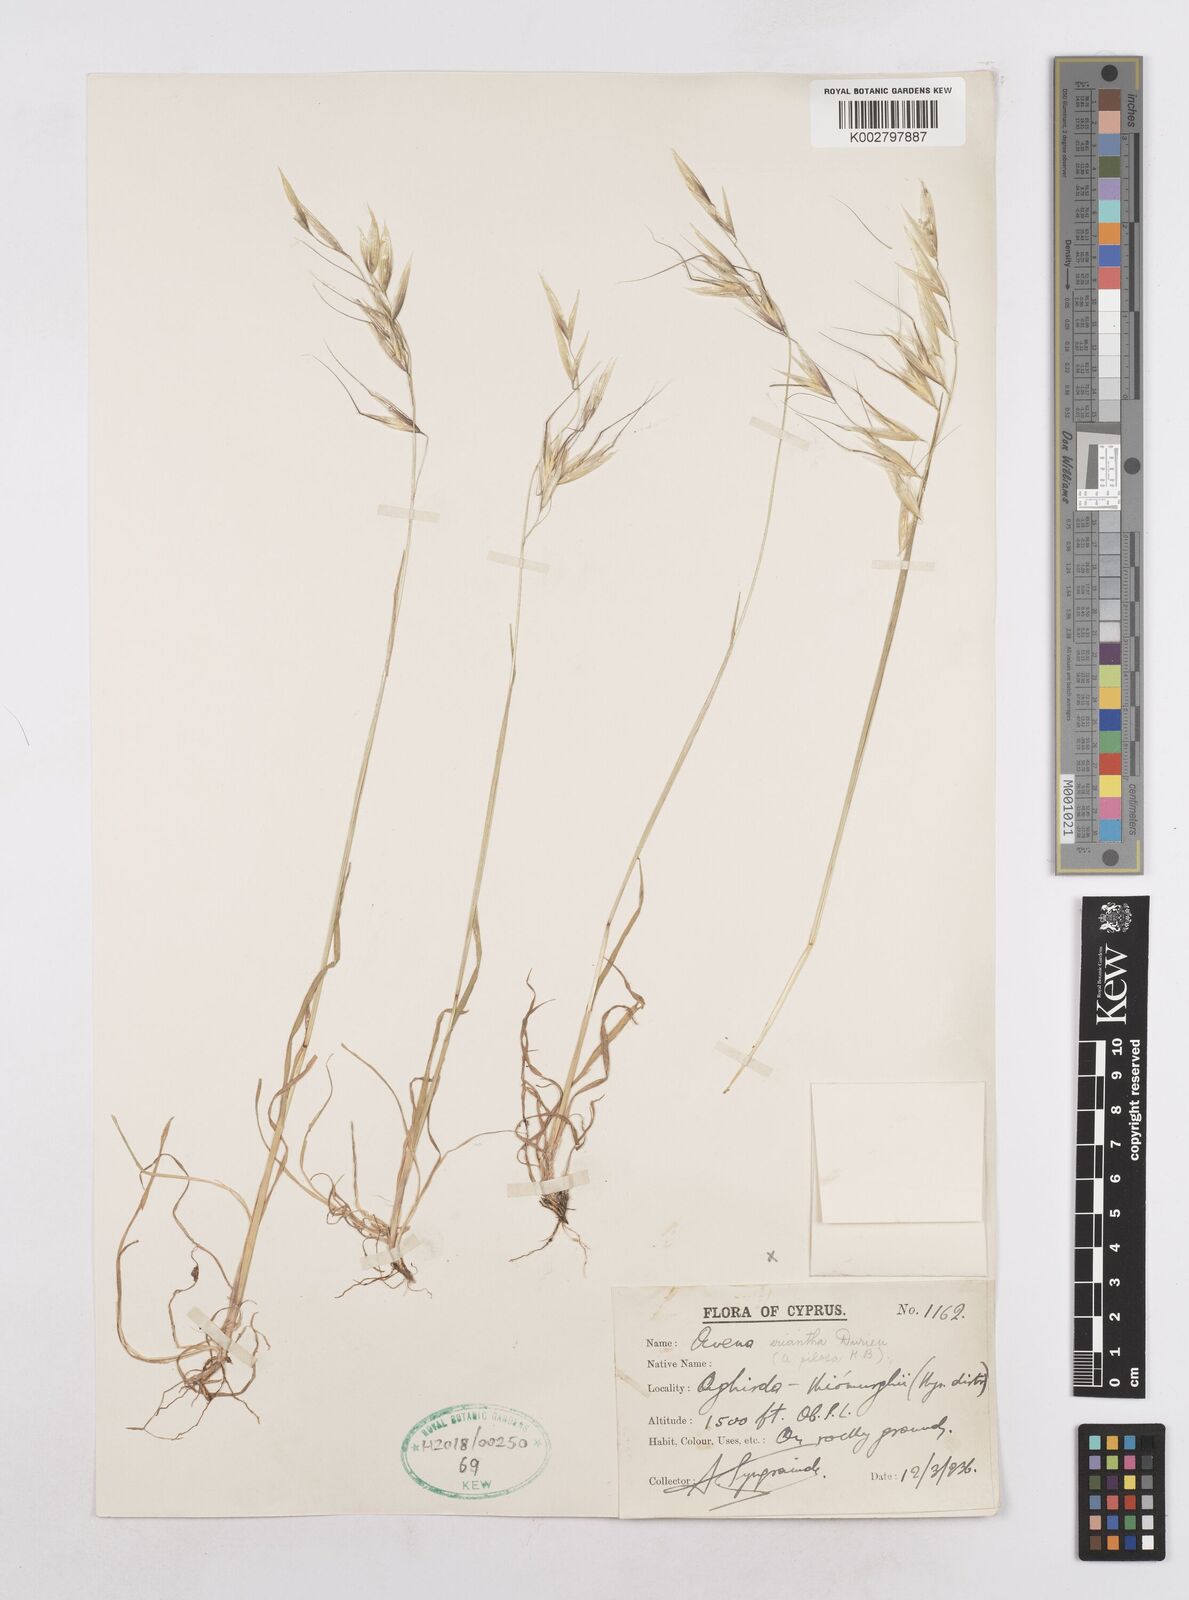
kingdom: Plantae
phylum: Tracheophyta
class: Liliopsida
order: Poales
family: Poaceae
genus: Avena
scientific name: Avena eriantha
